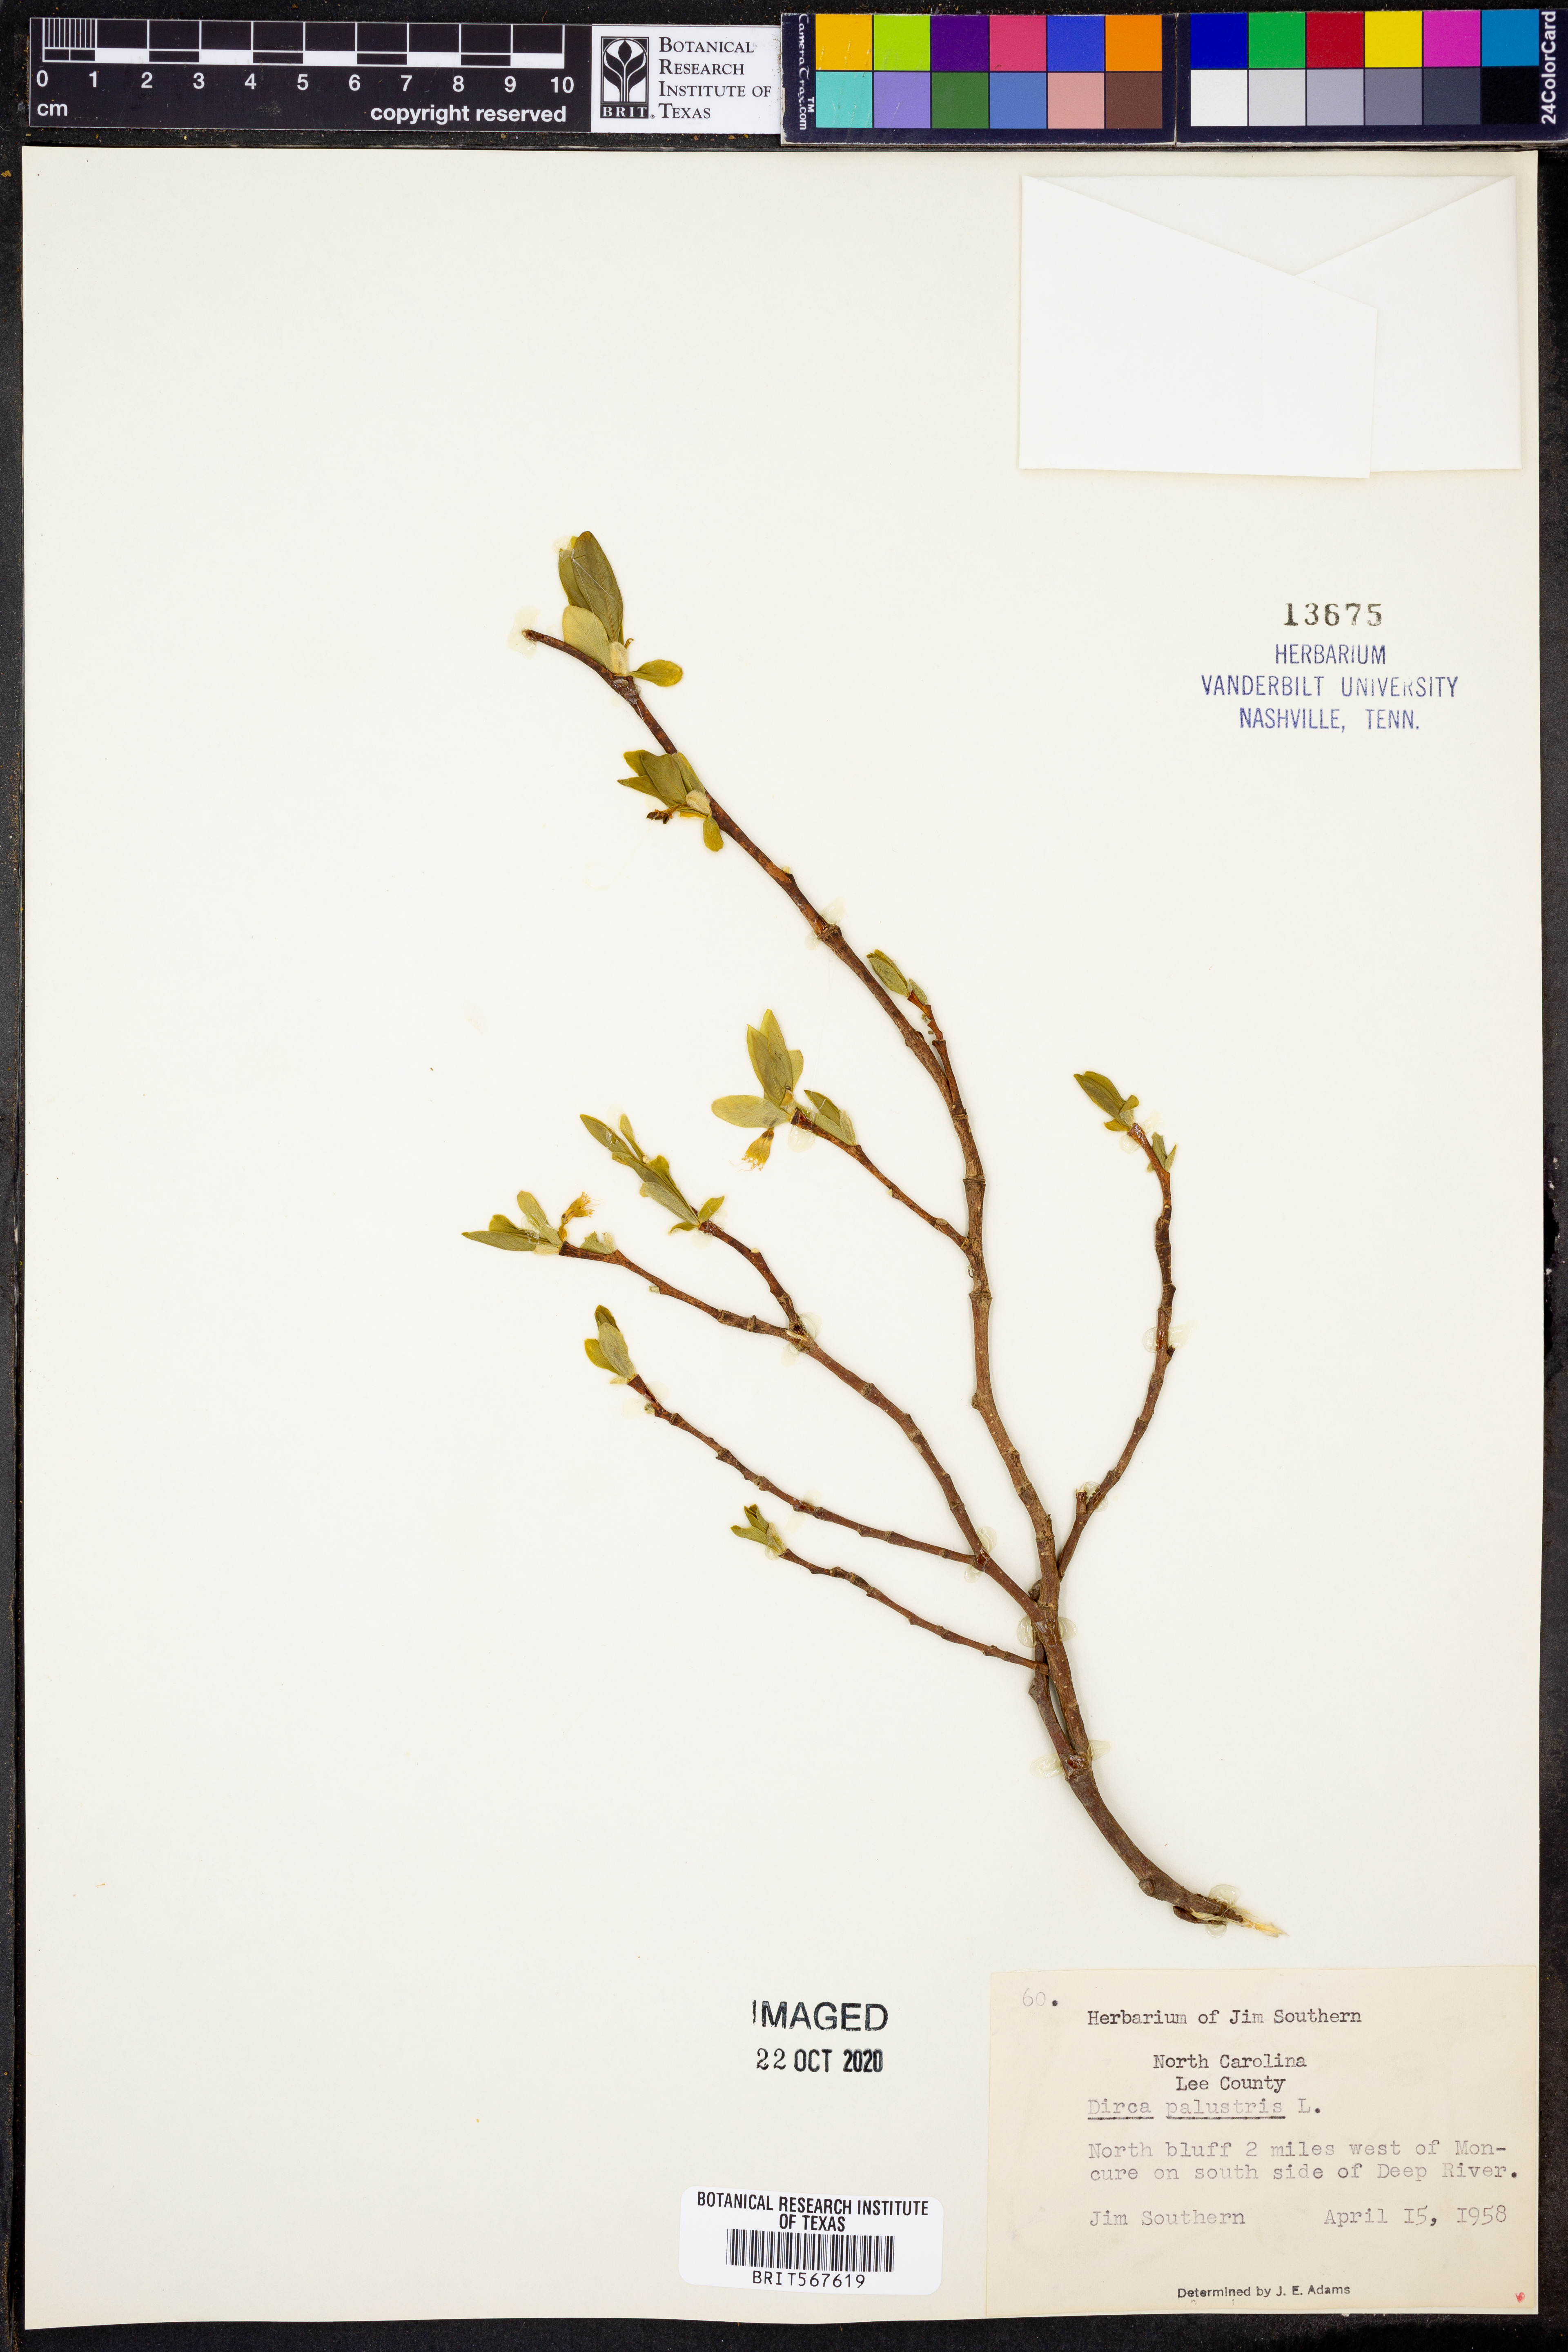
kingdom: Plantae
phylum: Tracheophyta
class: Magnoliopsida
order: Malvales
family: Thymelaeaceae
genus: Dirca
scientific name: Dirca palustris
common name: Leatherwood
